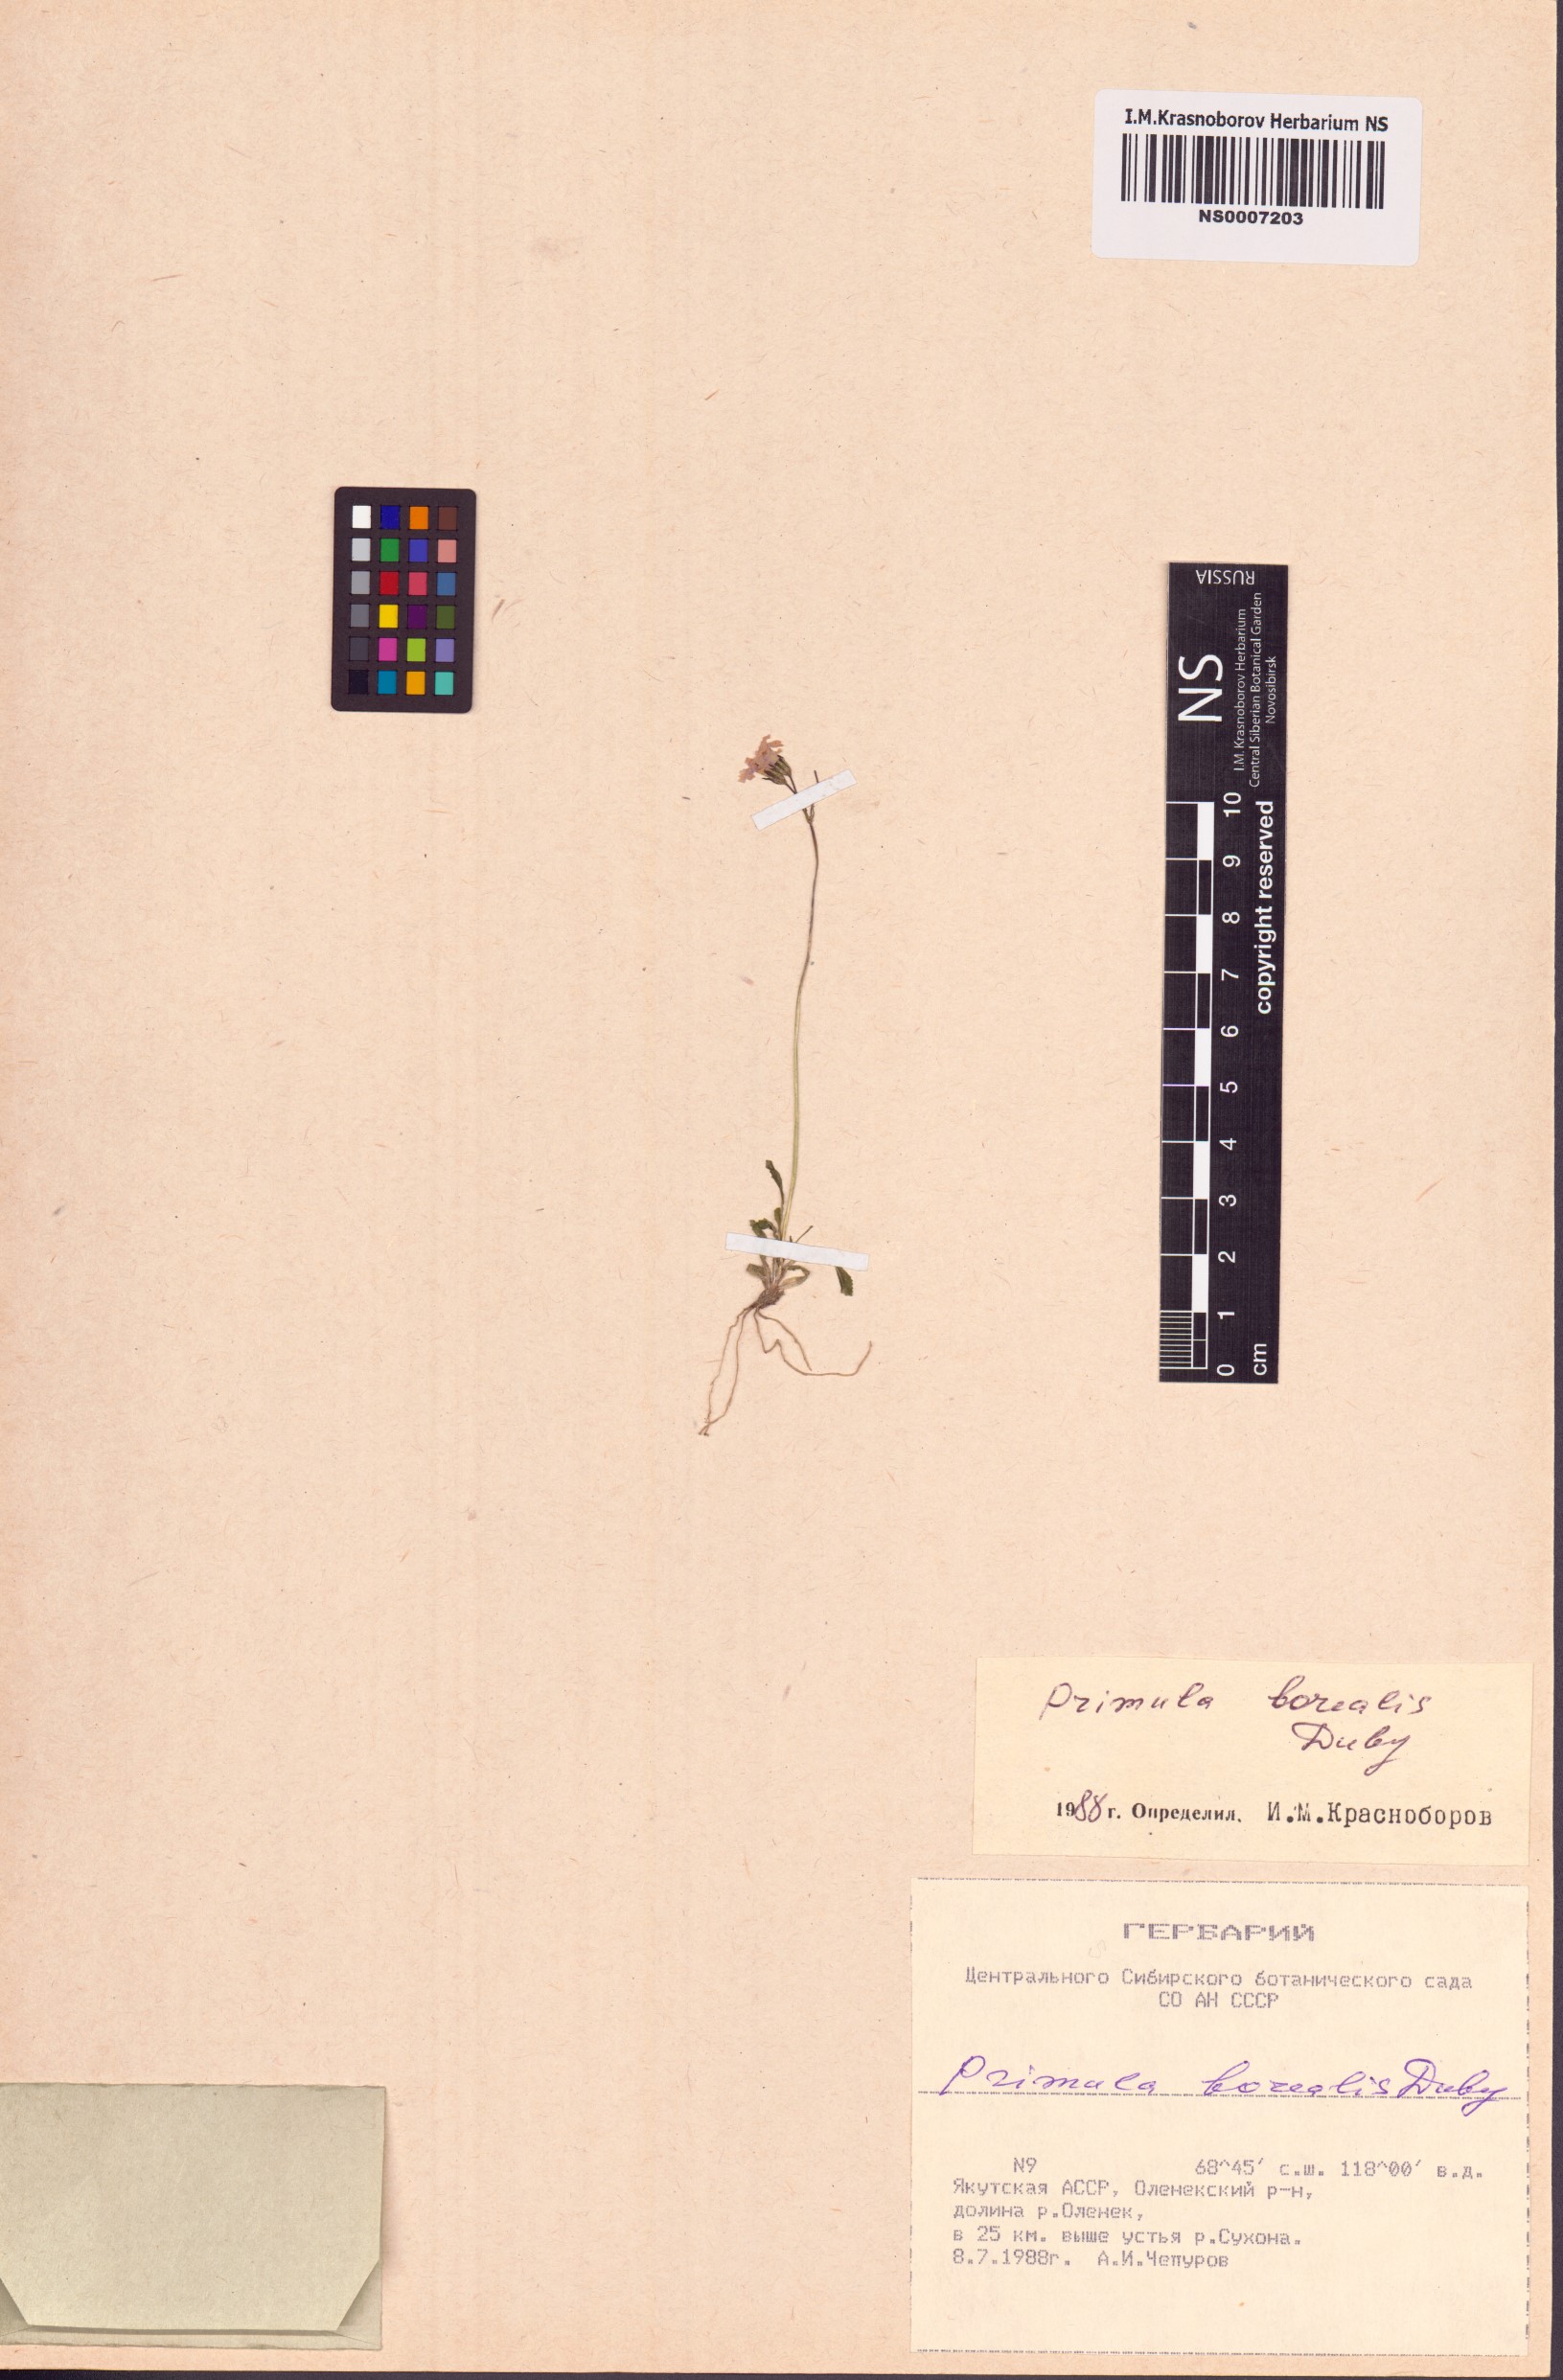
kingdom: Plantae
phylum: Tracheophyta
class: Magnoliopsida
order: Ericales
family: Primulaceae
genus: Primula
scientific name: Primula borealis
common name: Northern primrose
